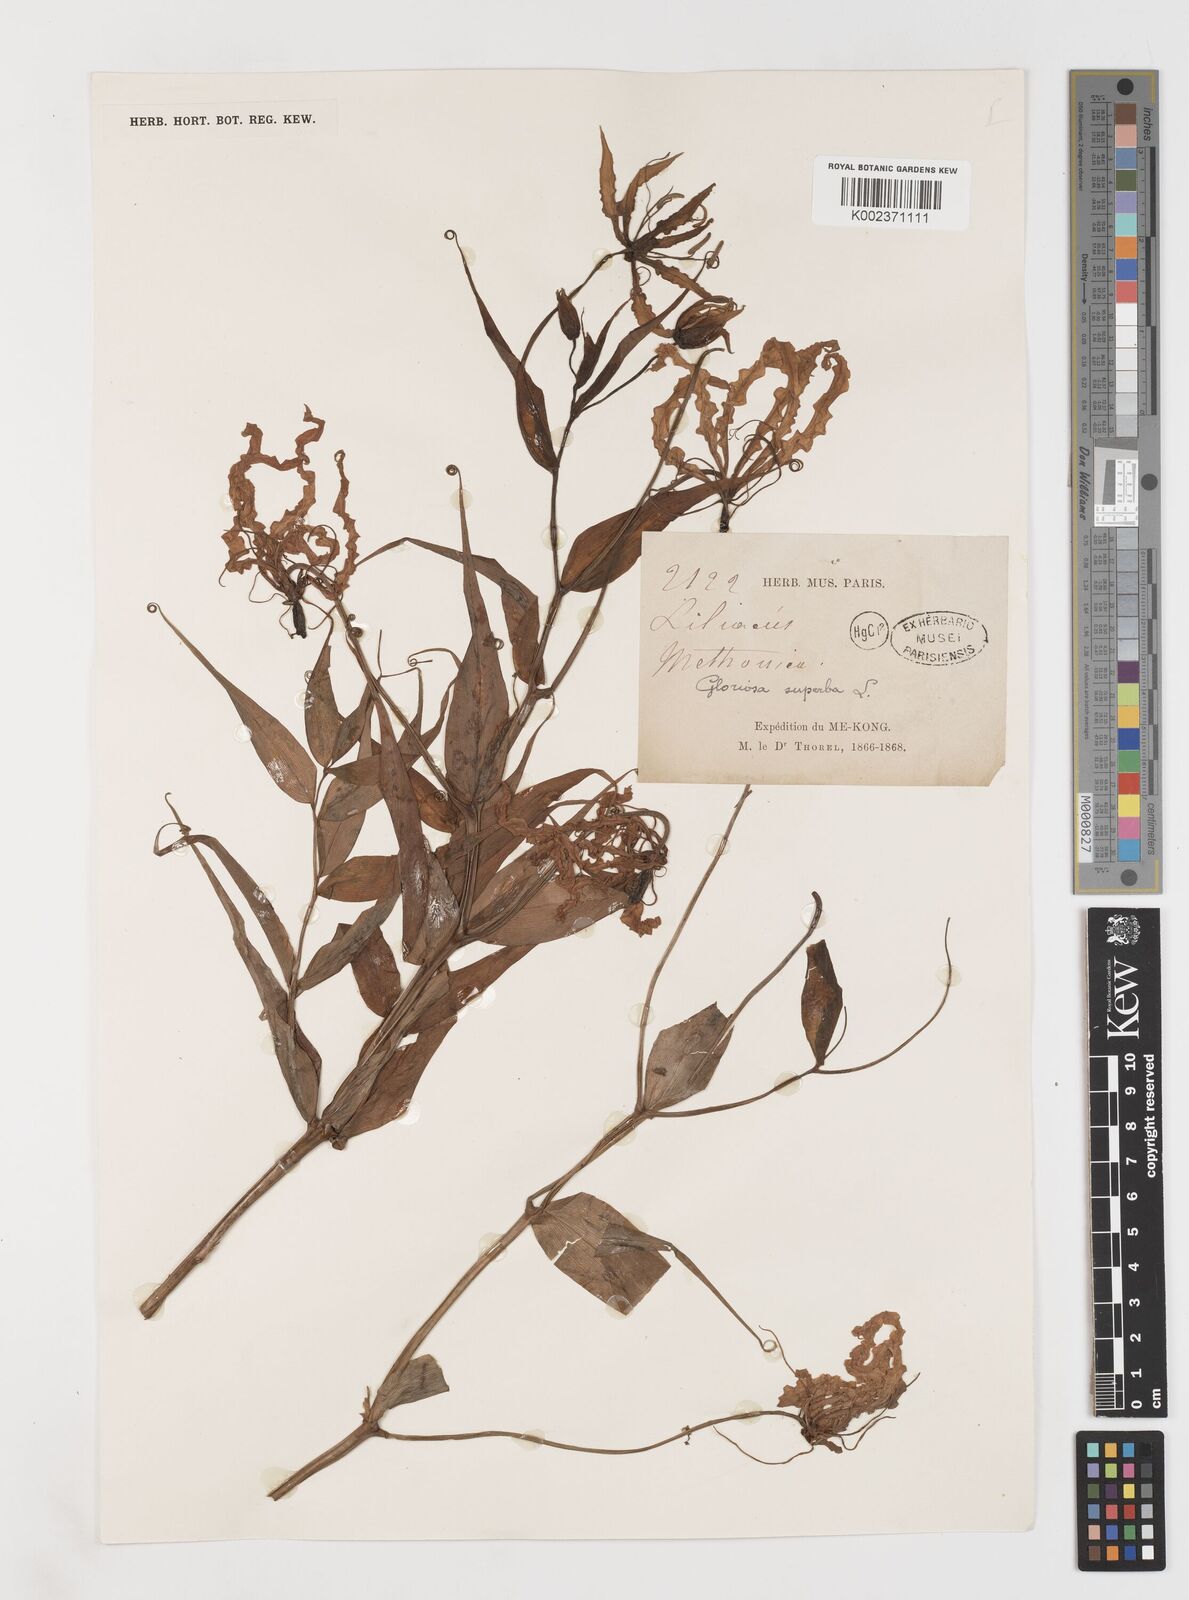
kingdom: Plantae
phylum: Tracheophyta
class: Liliopsida
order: Liliales
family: Colchicaceae
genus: Gloriosa
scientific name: Gloriosa superba
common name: Flame lily
